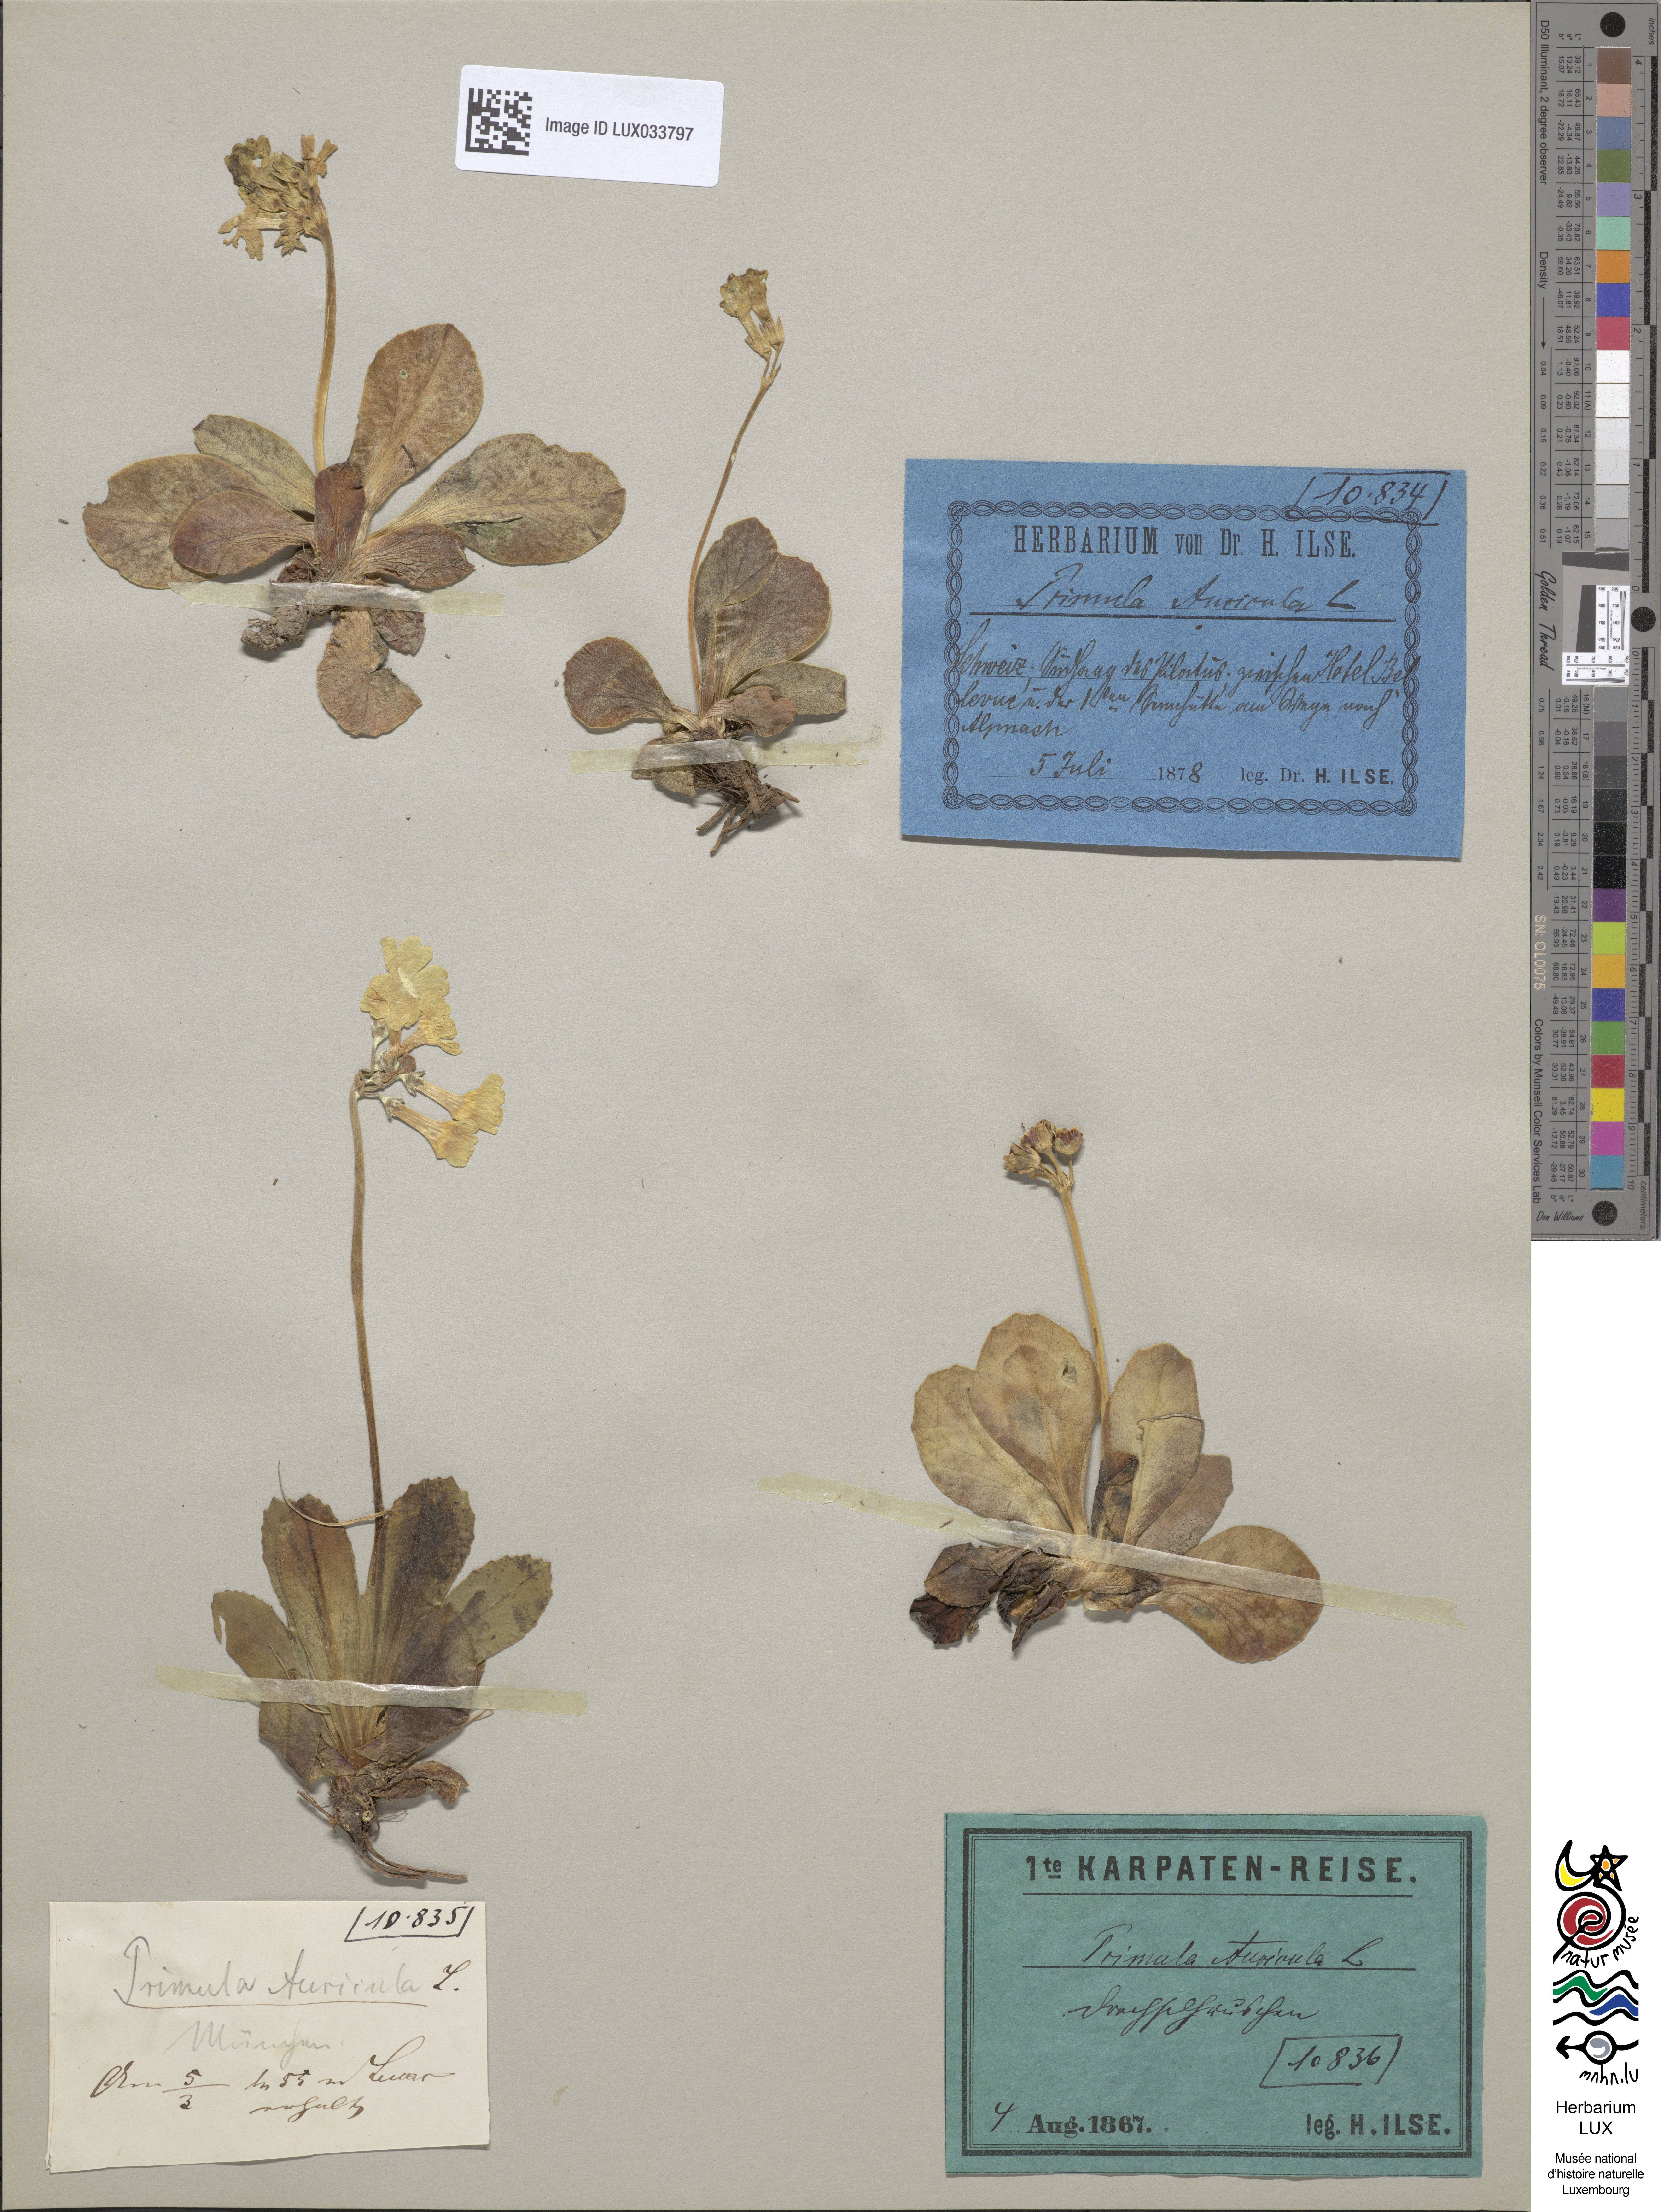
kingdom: Plantae
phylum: Tracheophyta
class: Magnoliopsida
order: Ericales
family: Primulaceae
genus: Primula
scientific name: Primula auricula
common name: Auricula
